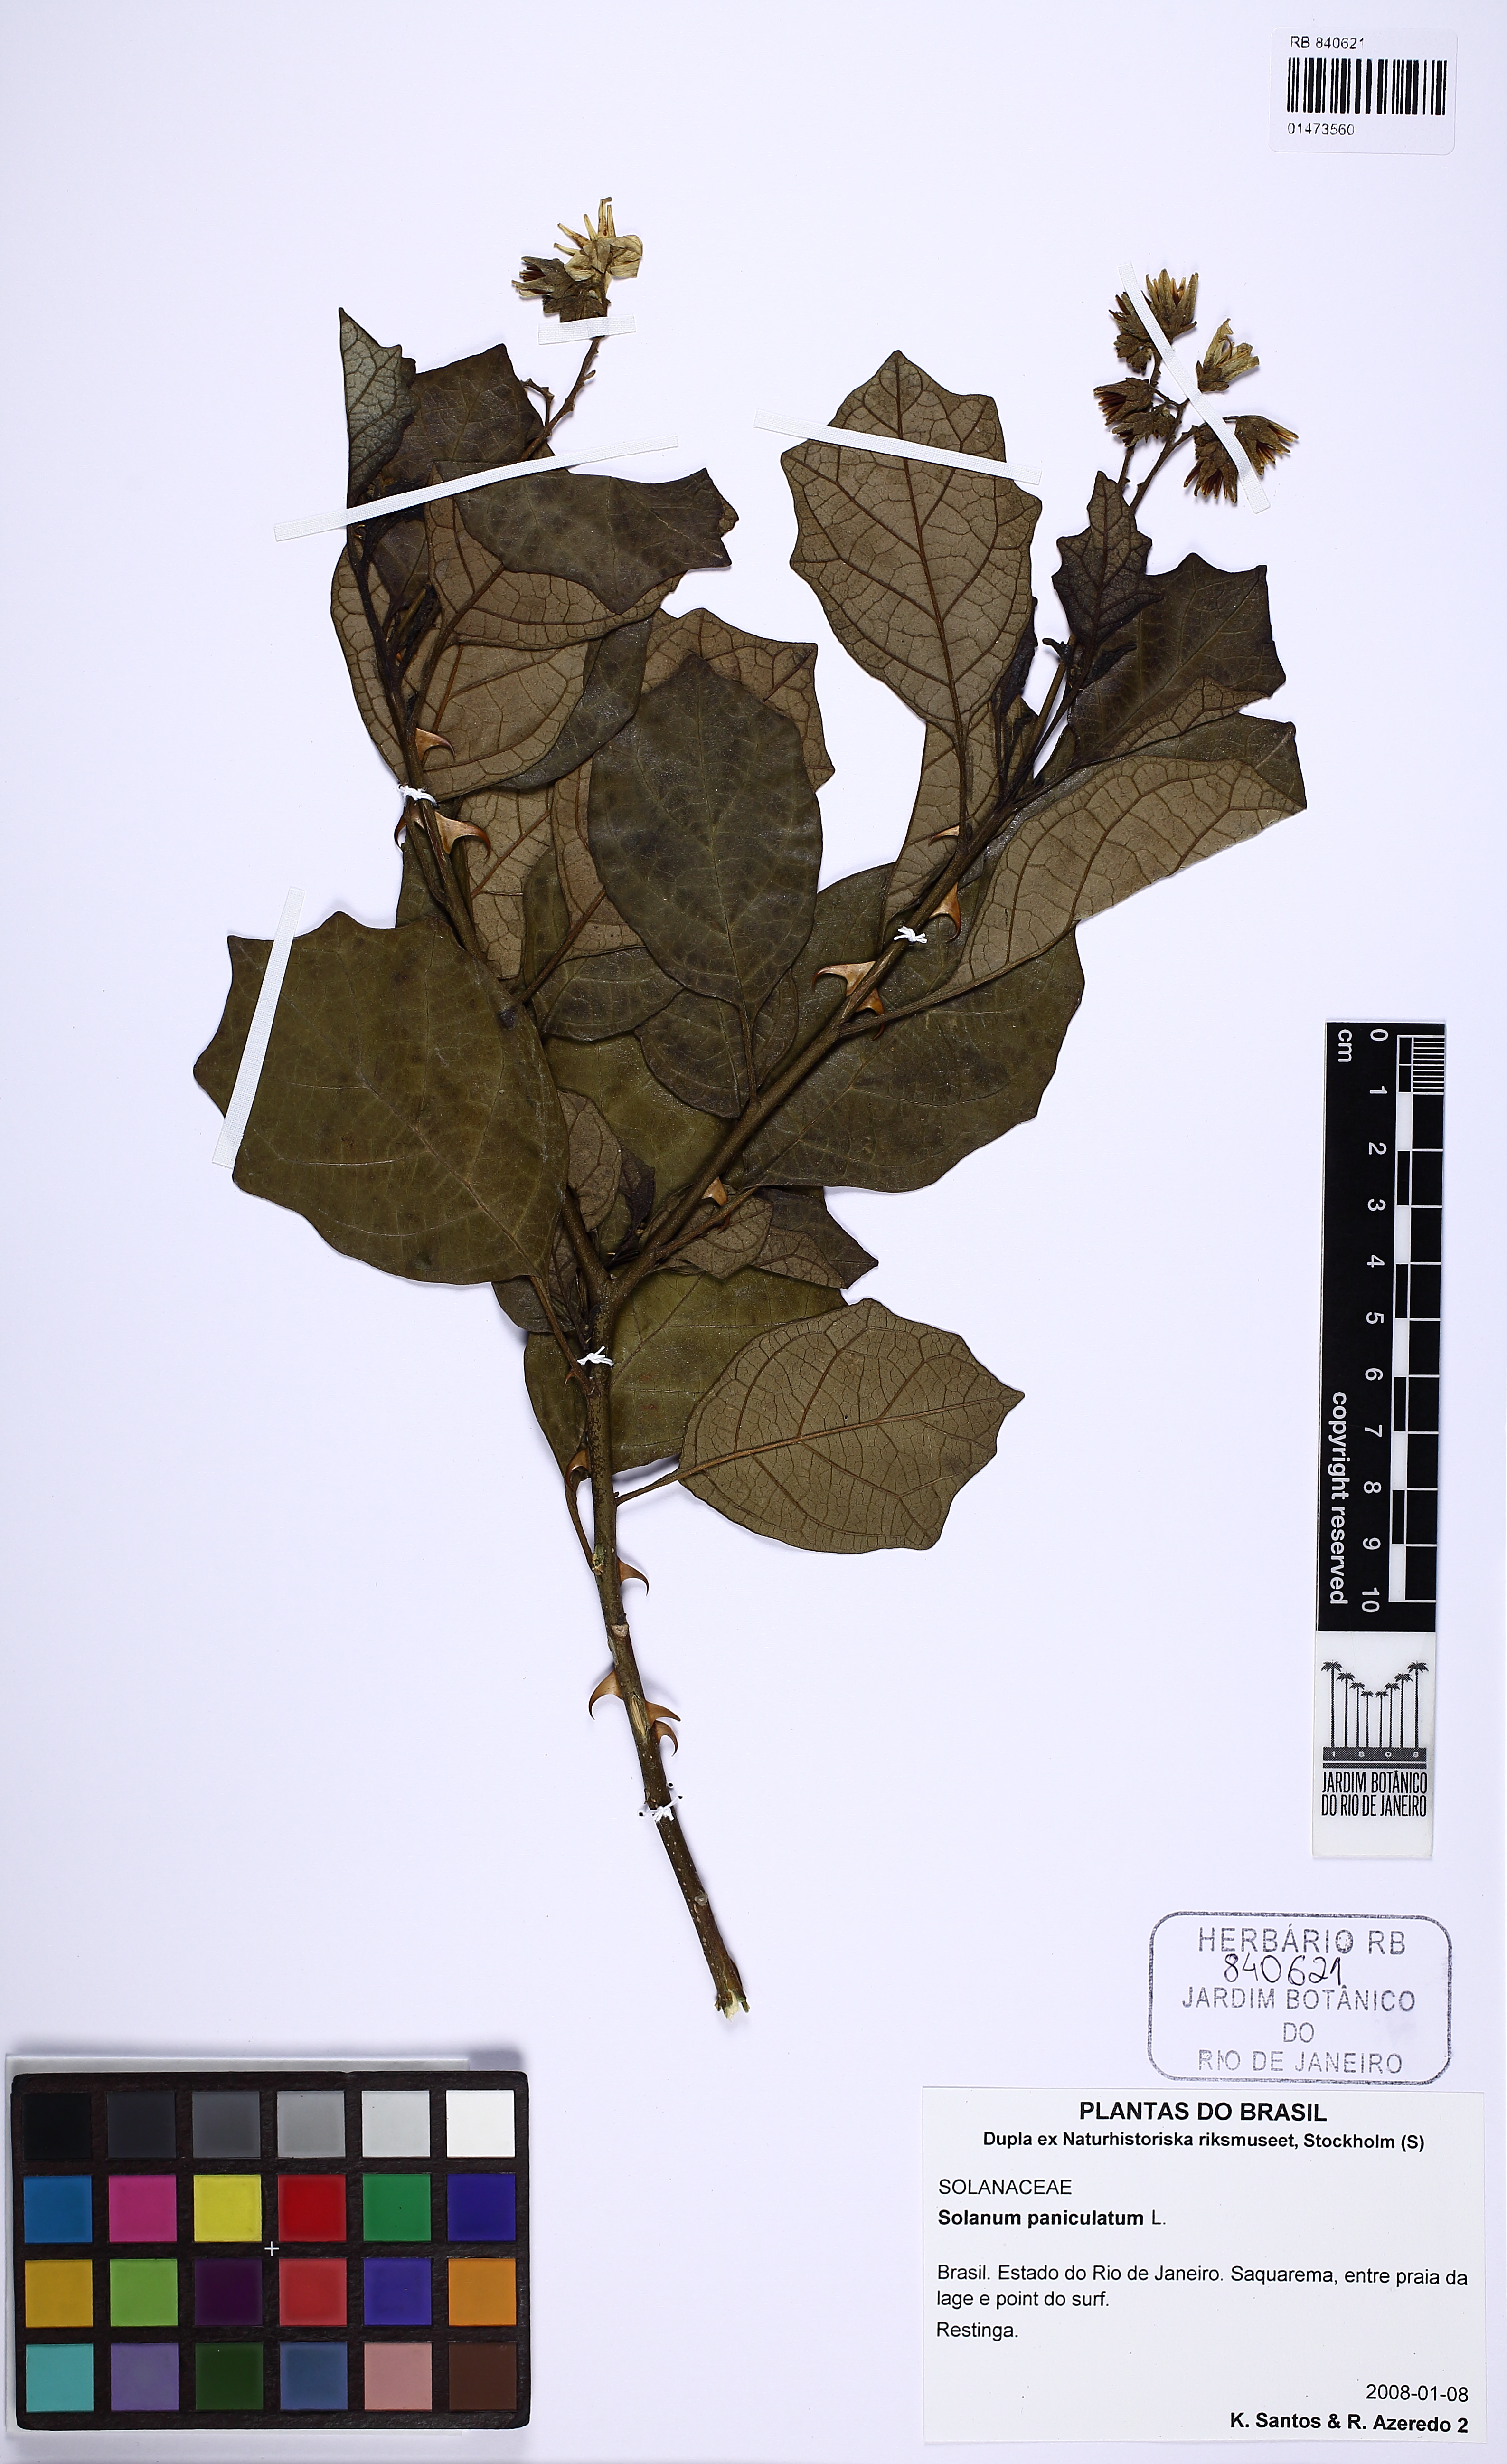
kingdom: Plantae
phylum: Tracheophyta
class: Magnoliopsida
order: Solanales
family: Solanaceae
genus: Solanum
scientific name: Solanum paniculatum
